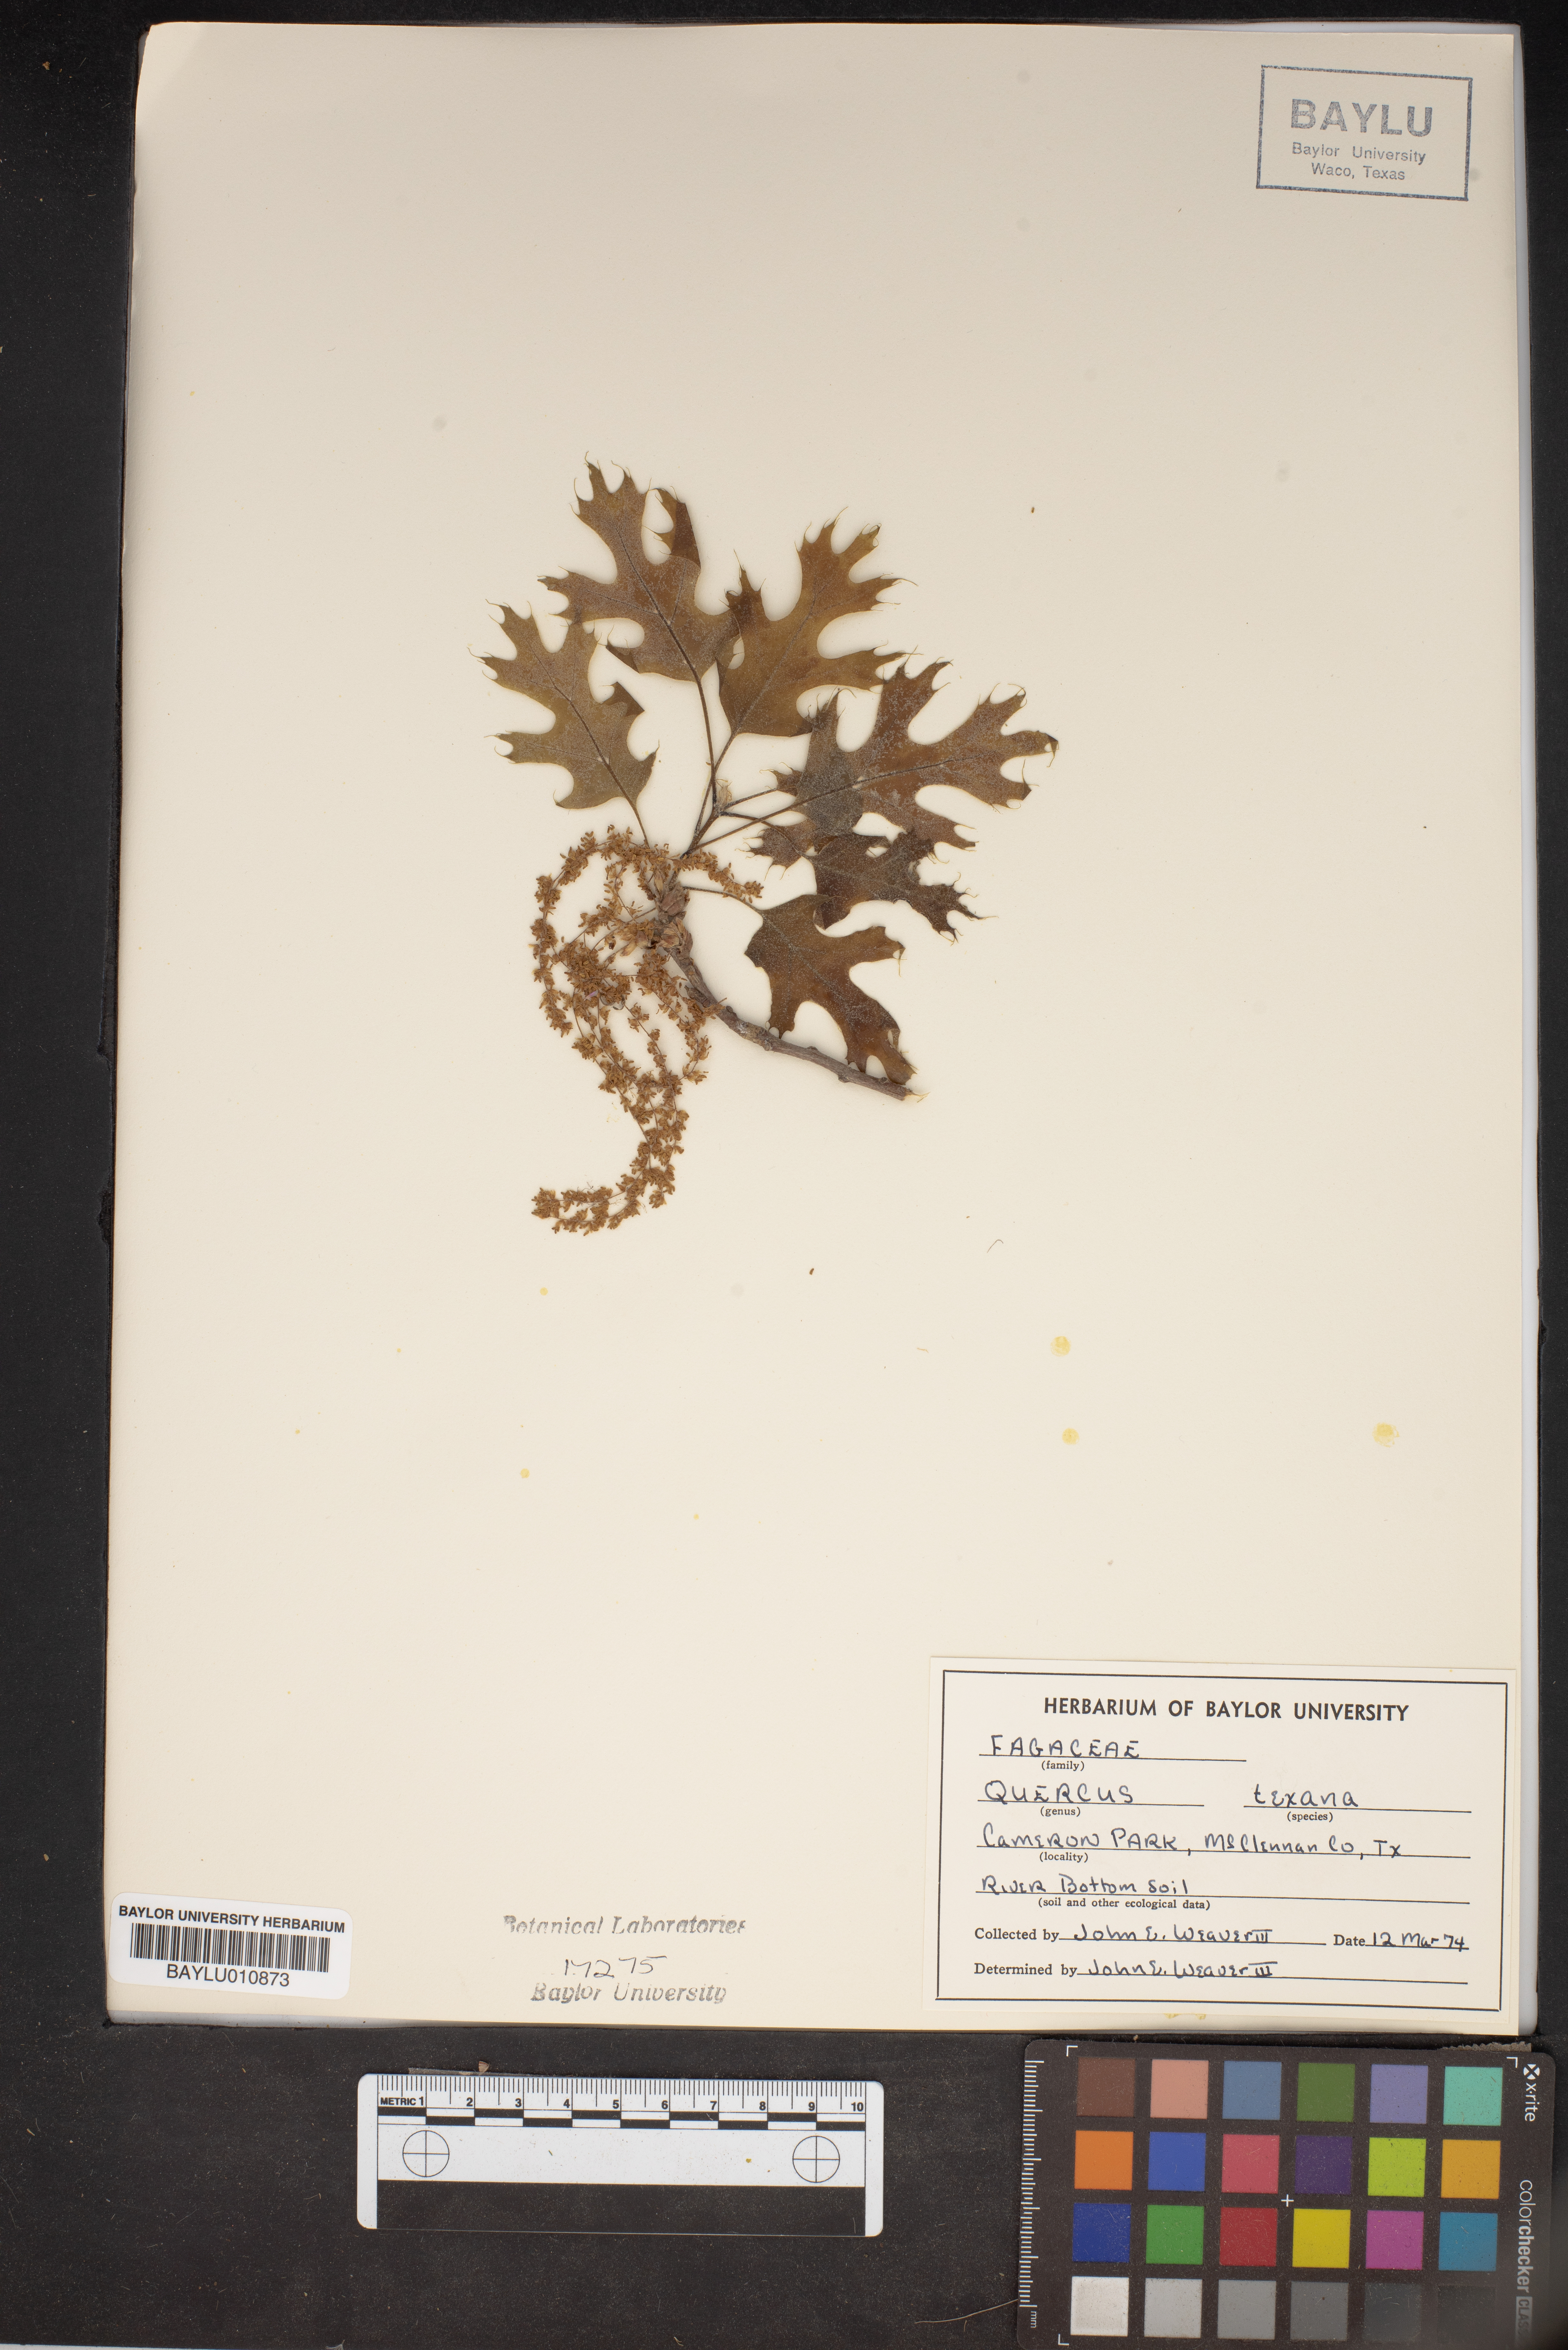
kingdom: Plantae
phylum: Tracheophyta
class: Magnoliopsida
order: Fagales
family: Fagaceae
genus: Quercus
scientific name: Quercus texana
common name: Nuttall oak
